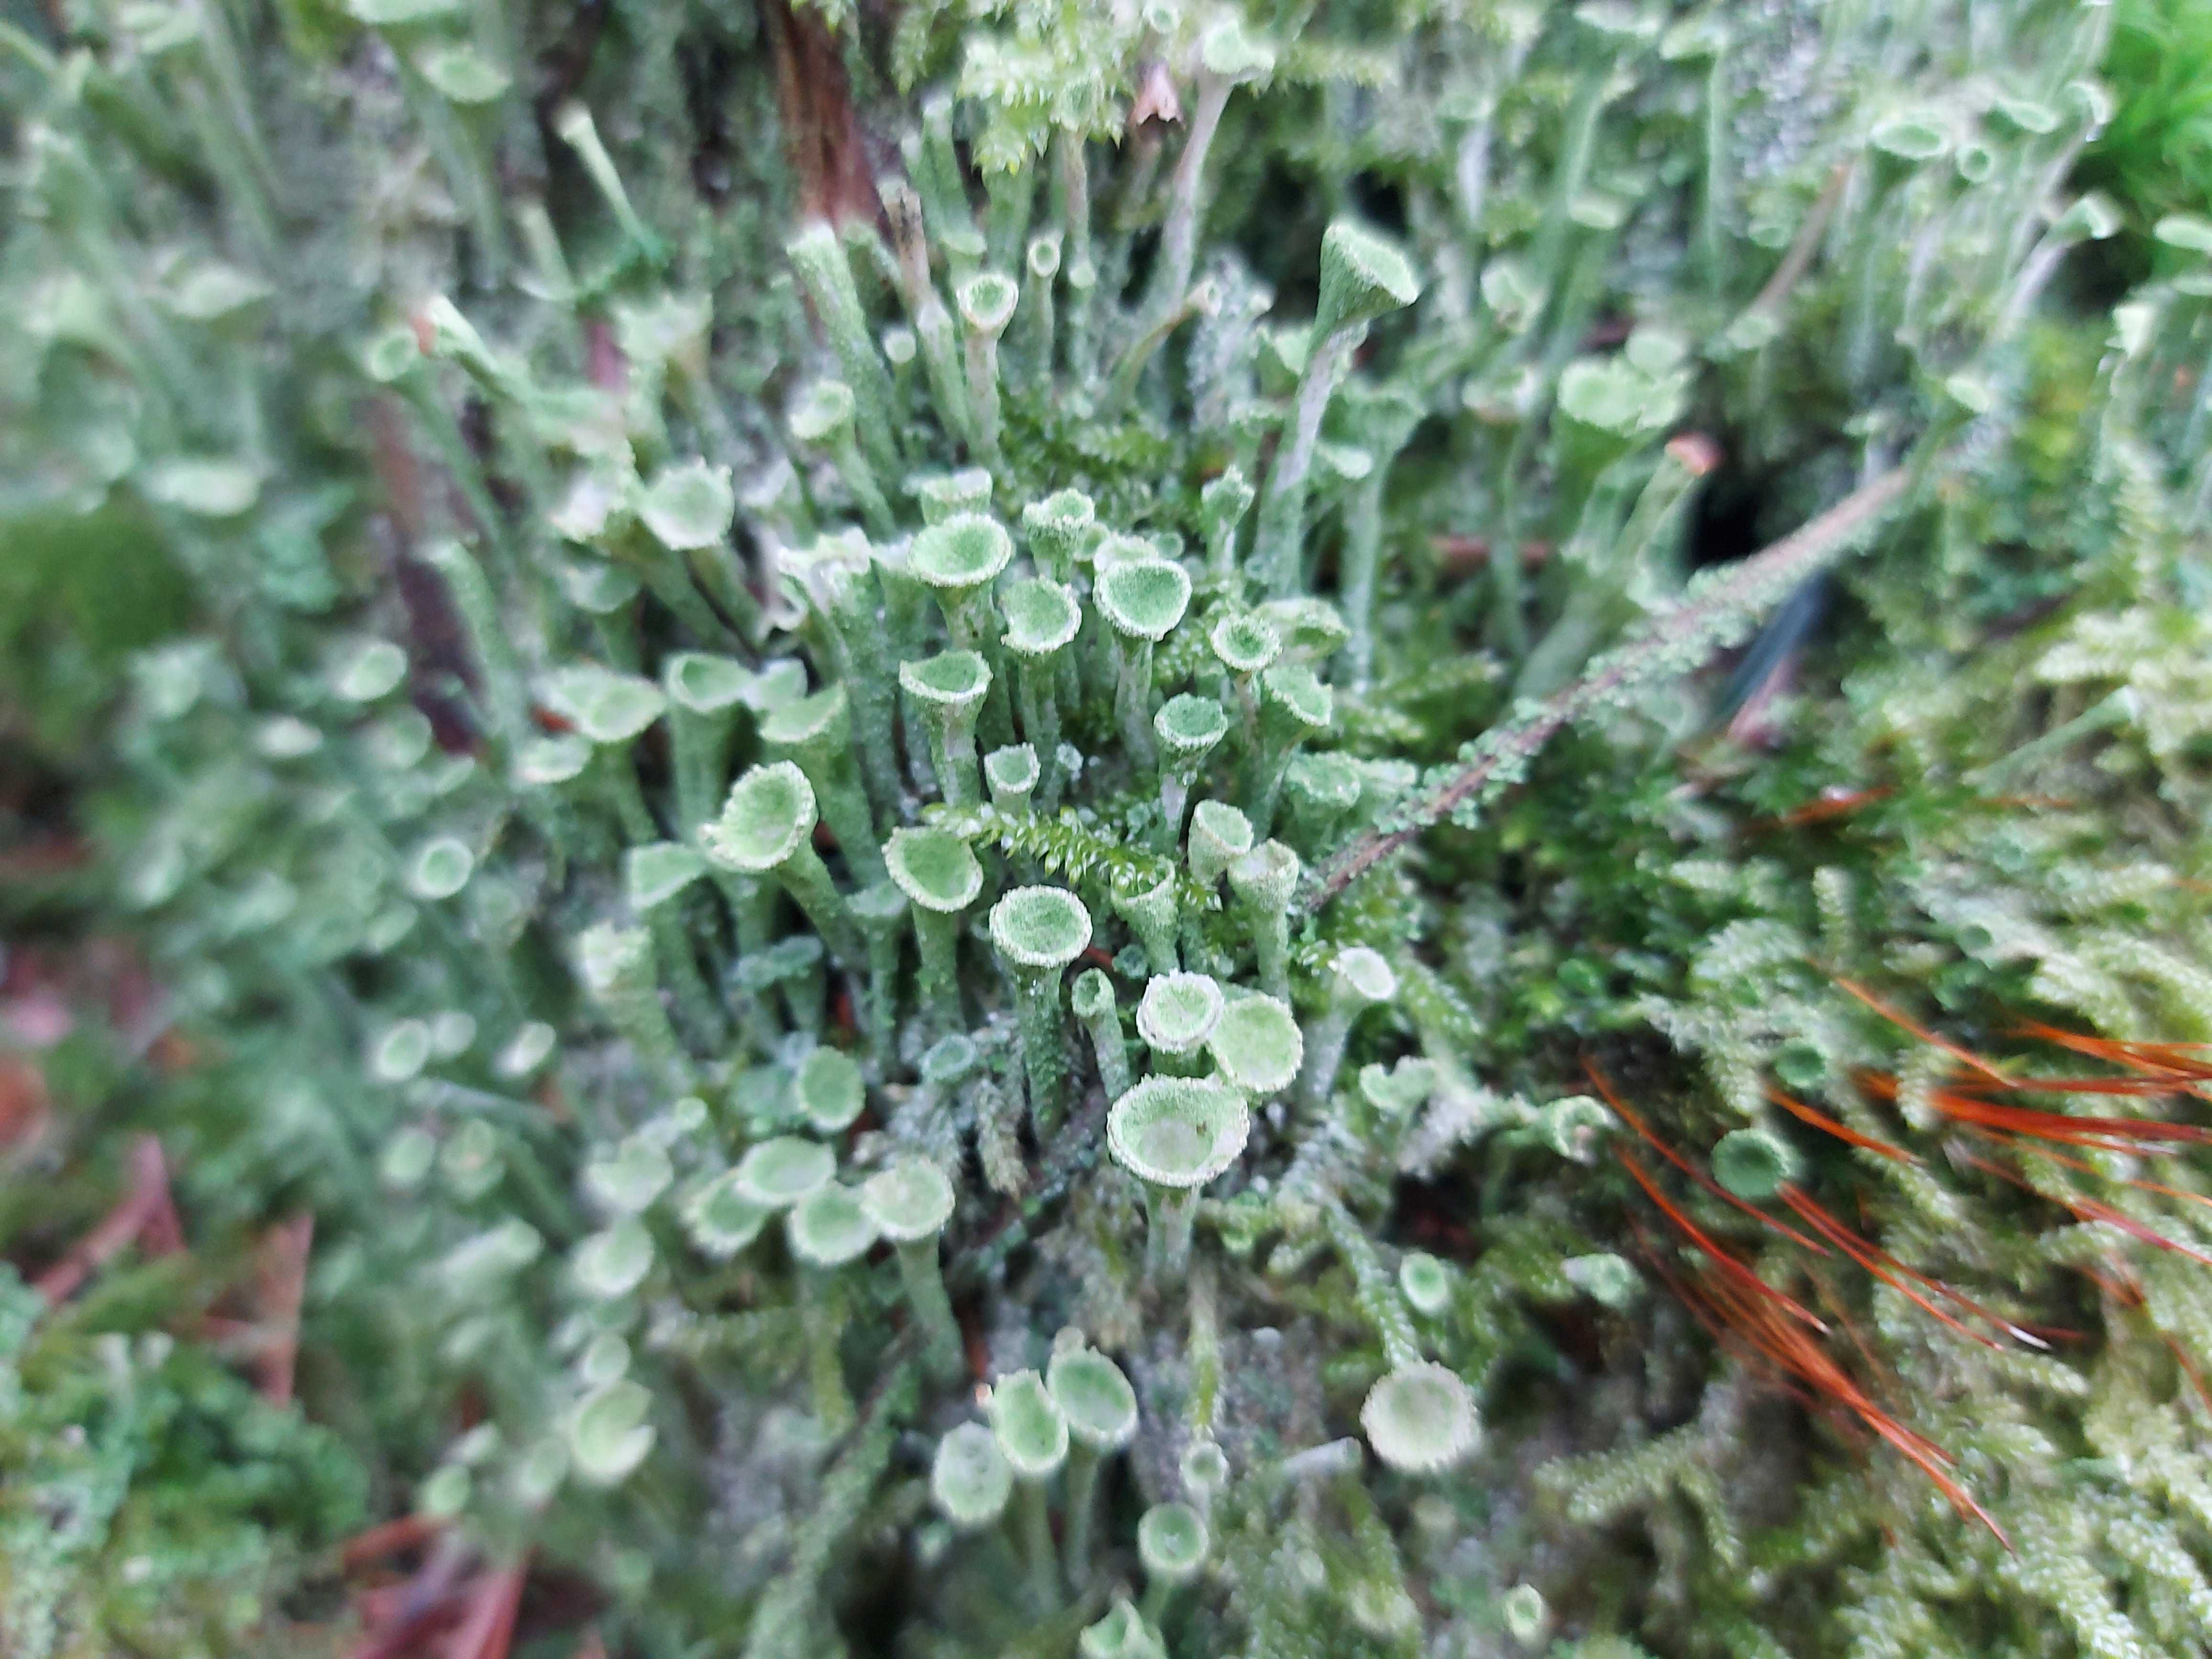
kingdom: Fungi
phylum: Ascomycota
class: Lecanoromycetes
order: Lecanorales
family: Cladoniaceae
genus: Cladonia
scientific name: Cladonia
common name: brungrøn bægerlav
